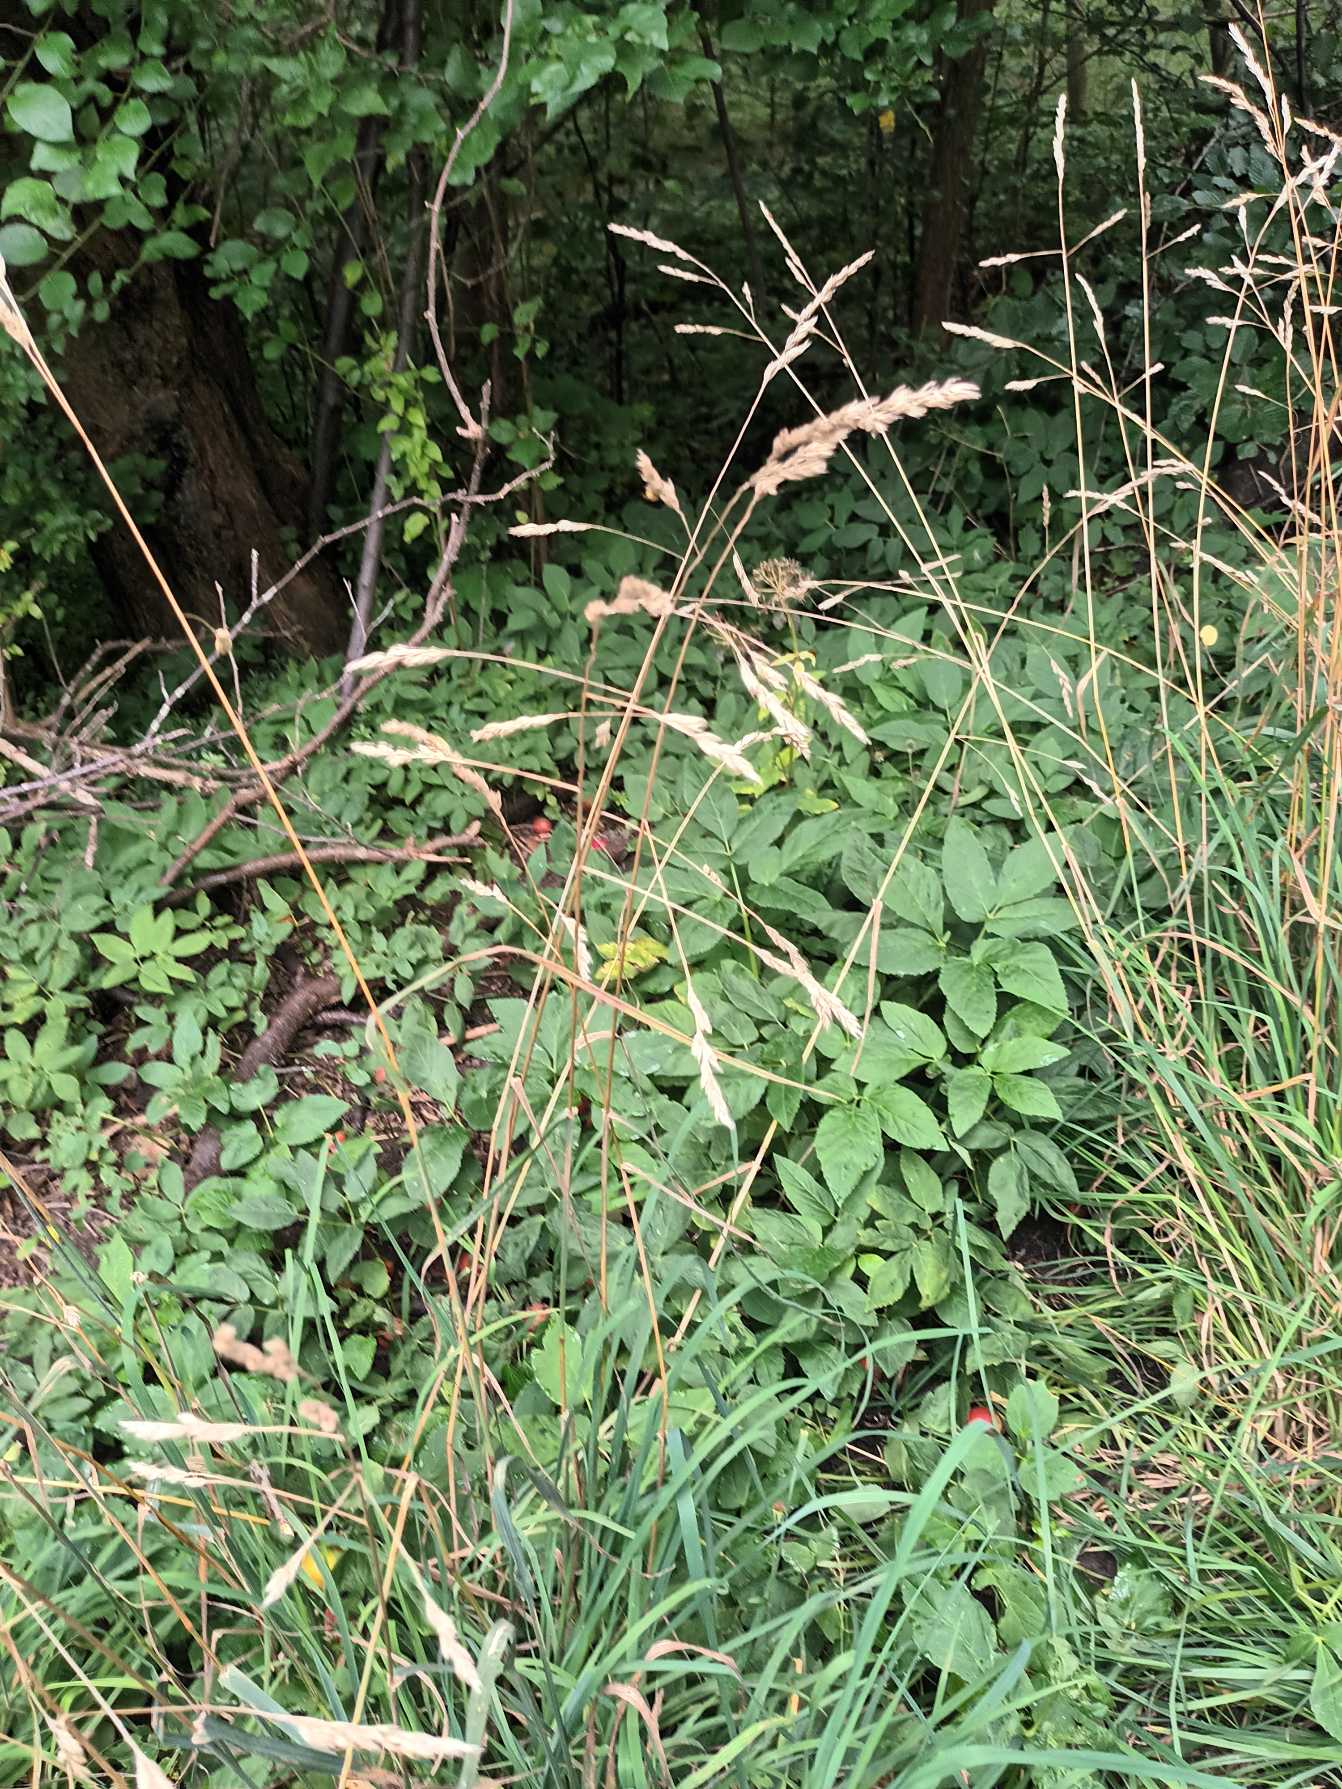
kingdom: Plantae
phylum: Tracheophyta
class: Liliopsida
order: Poales
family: Poaceae
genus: Dactylis
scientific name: Dactylis glomerata
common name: Almindelig hundegræs
